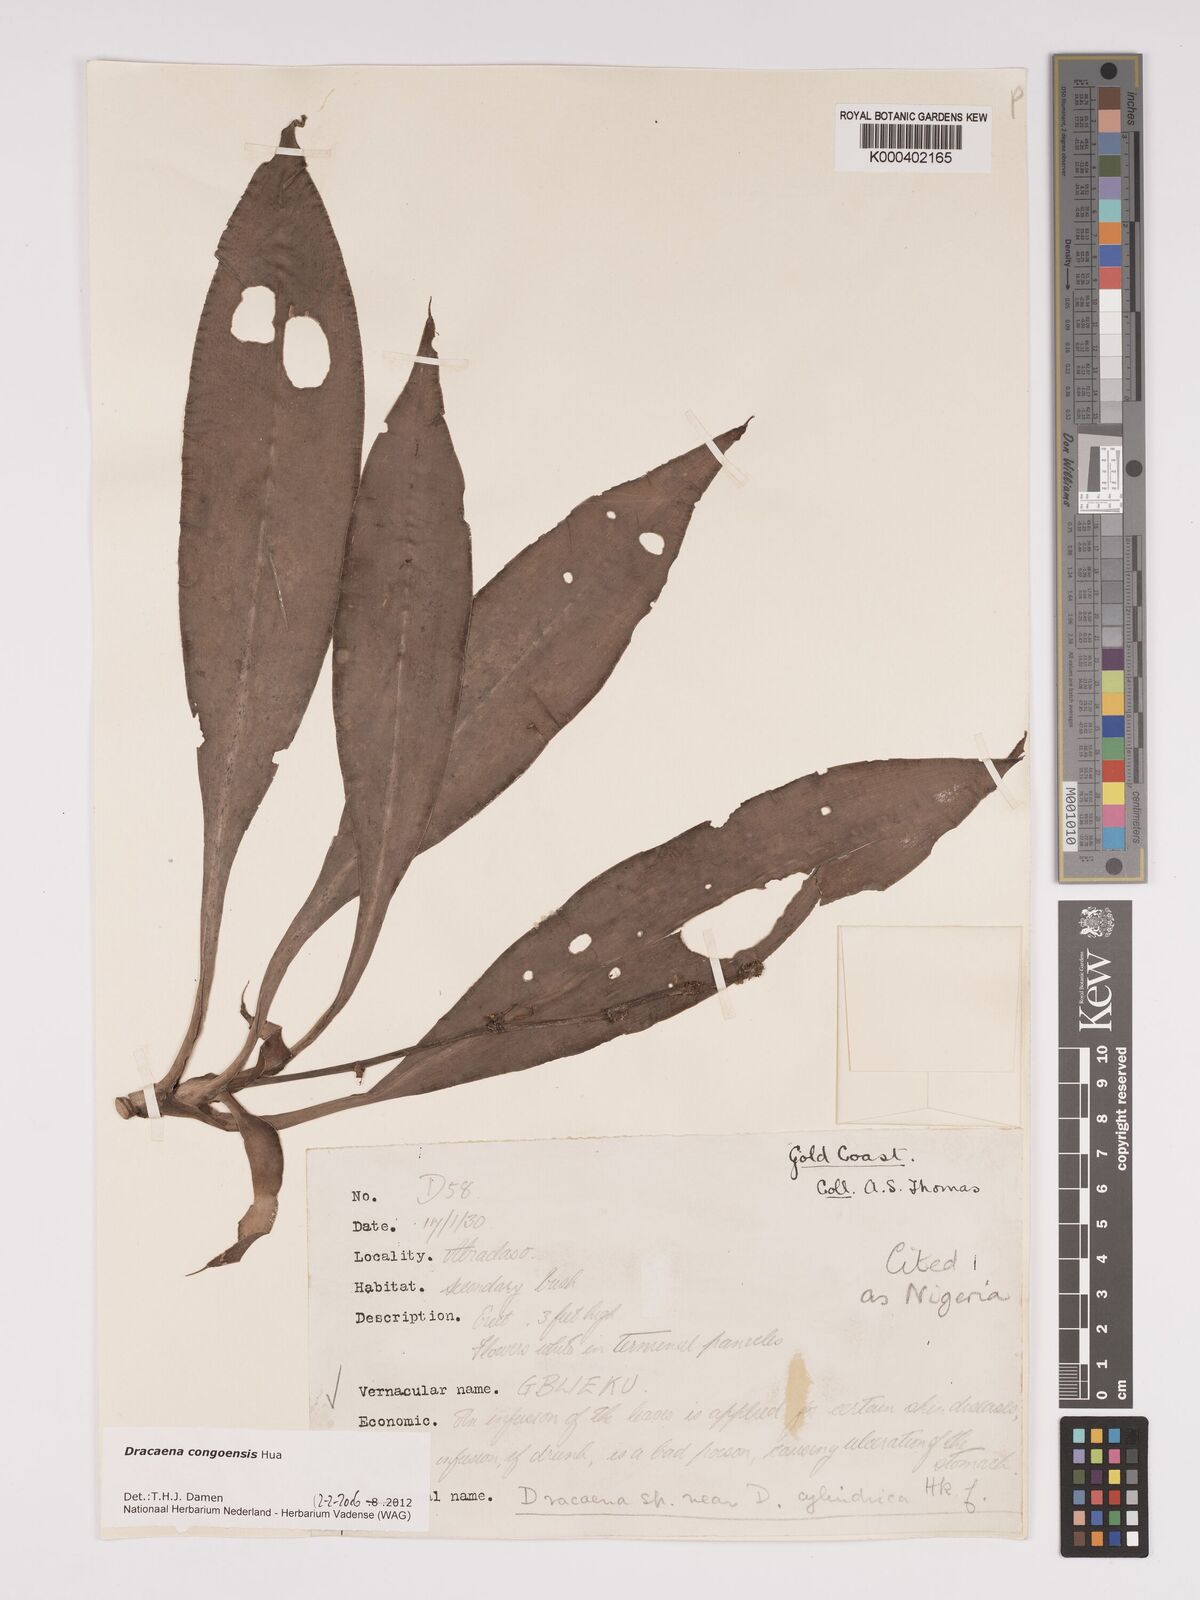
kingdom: Plantae
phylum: Tracheophyta
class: Liliopsida
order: Asparagales
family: Asparagaceae
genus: Dracaena
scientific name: Dracaena congoensis
